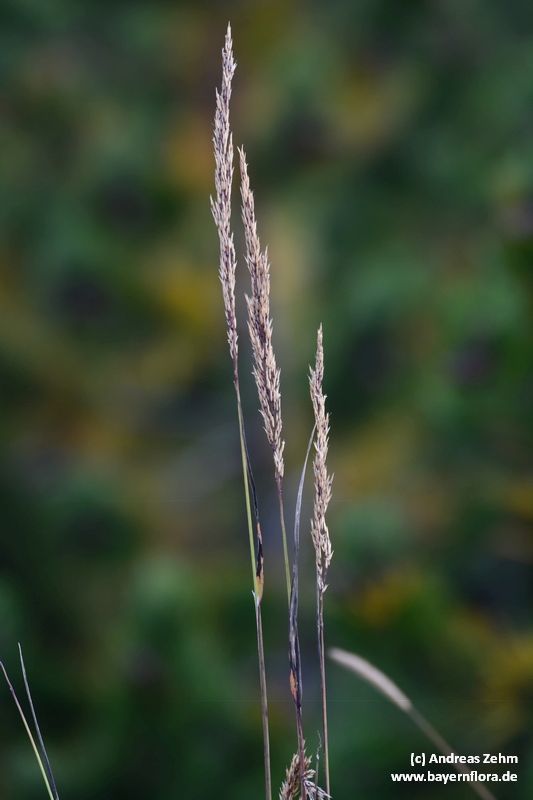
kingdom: Plantae
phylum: Tracheophyta
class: Liliopsida
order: Poales
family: Poaceae
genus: Calamagrostis
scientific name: Calamagrostis villosa
